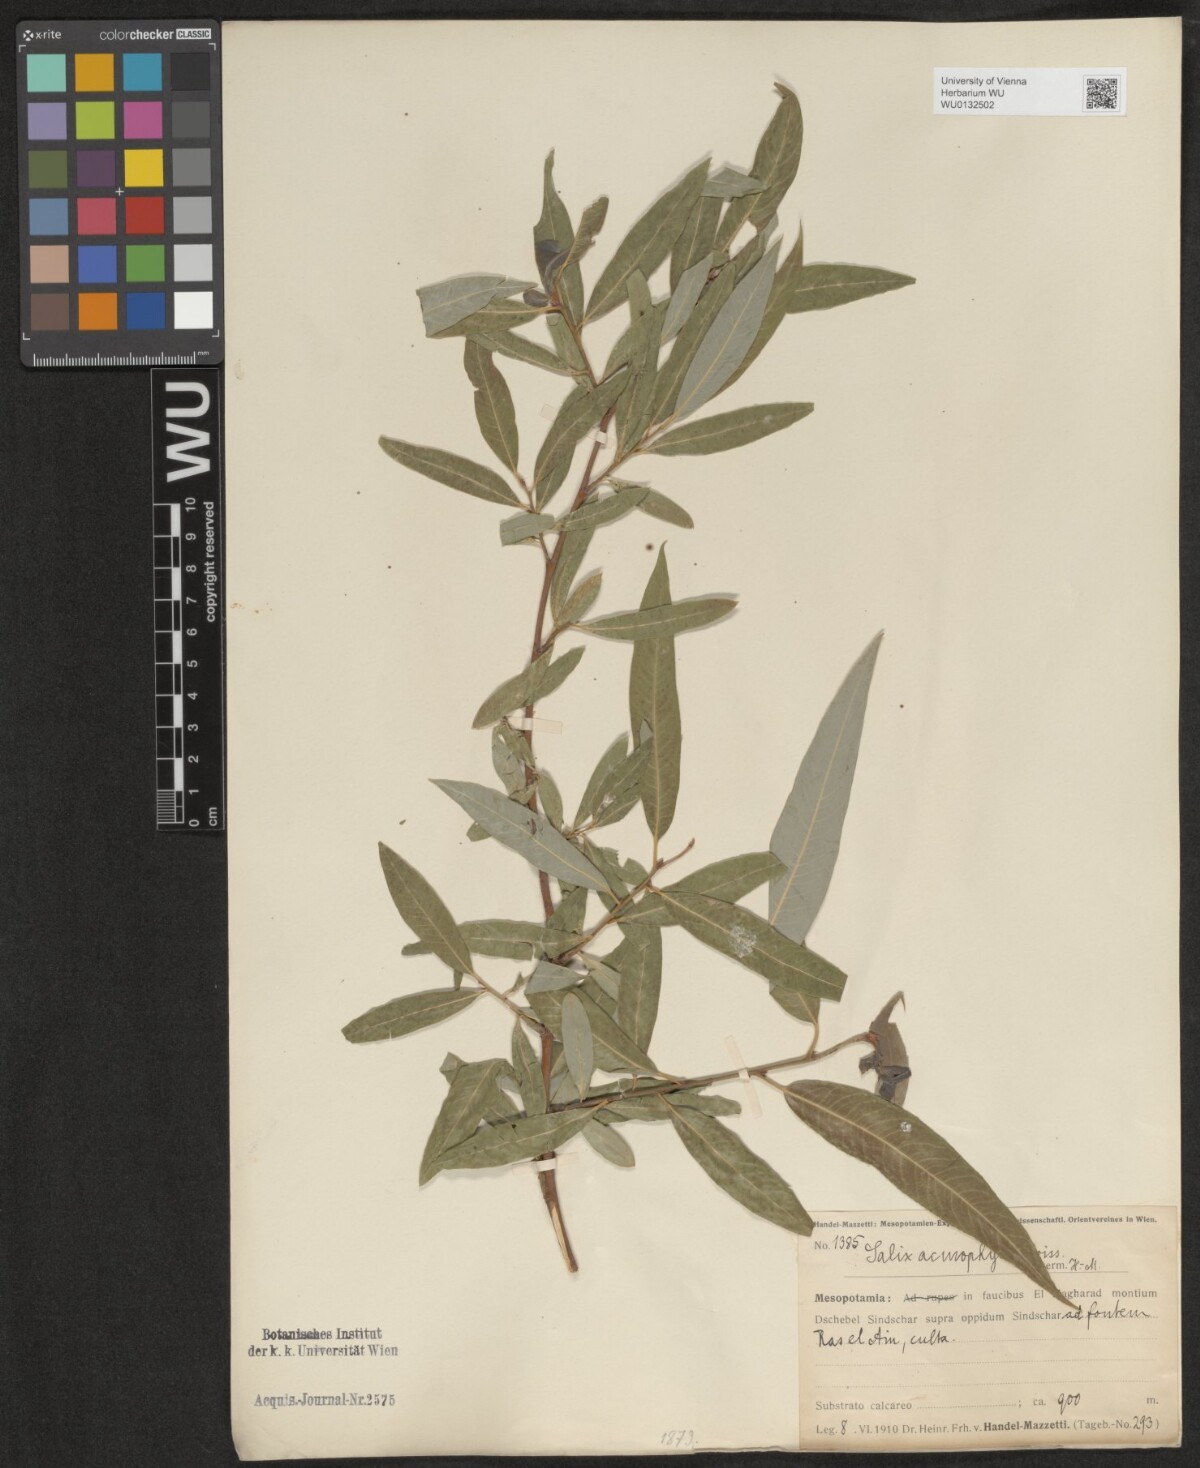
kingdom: Plantae
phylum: Tracheophyta
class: Magnoliopsida
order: Malpighiales
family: Salicaceae
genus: Salix
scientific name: Salix acmophylla
